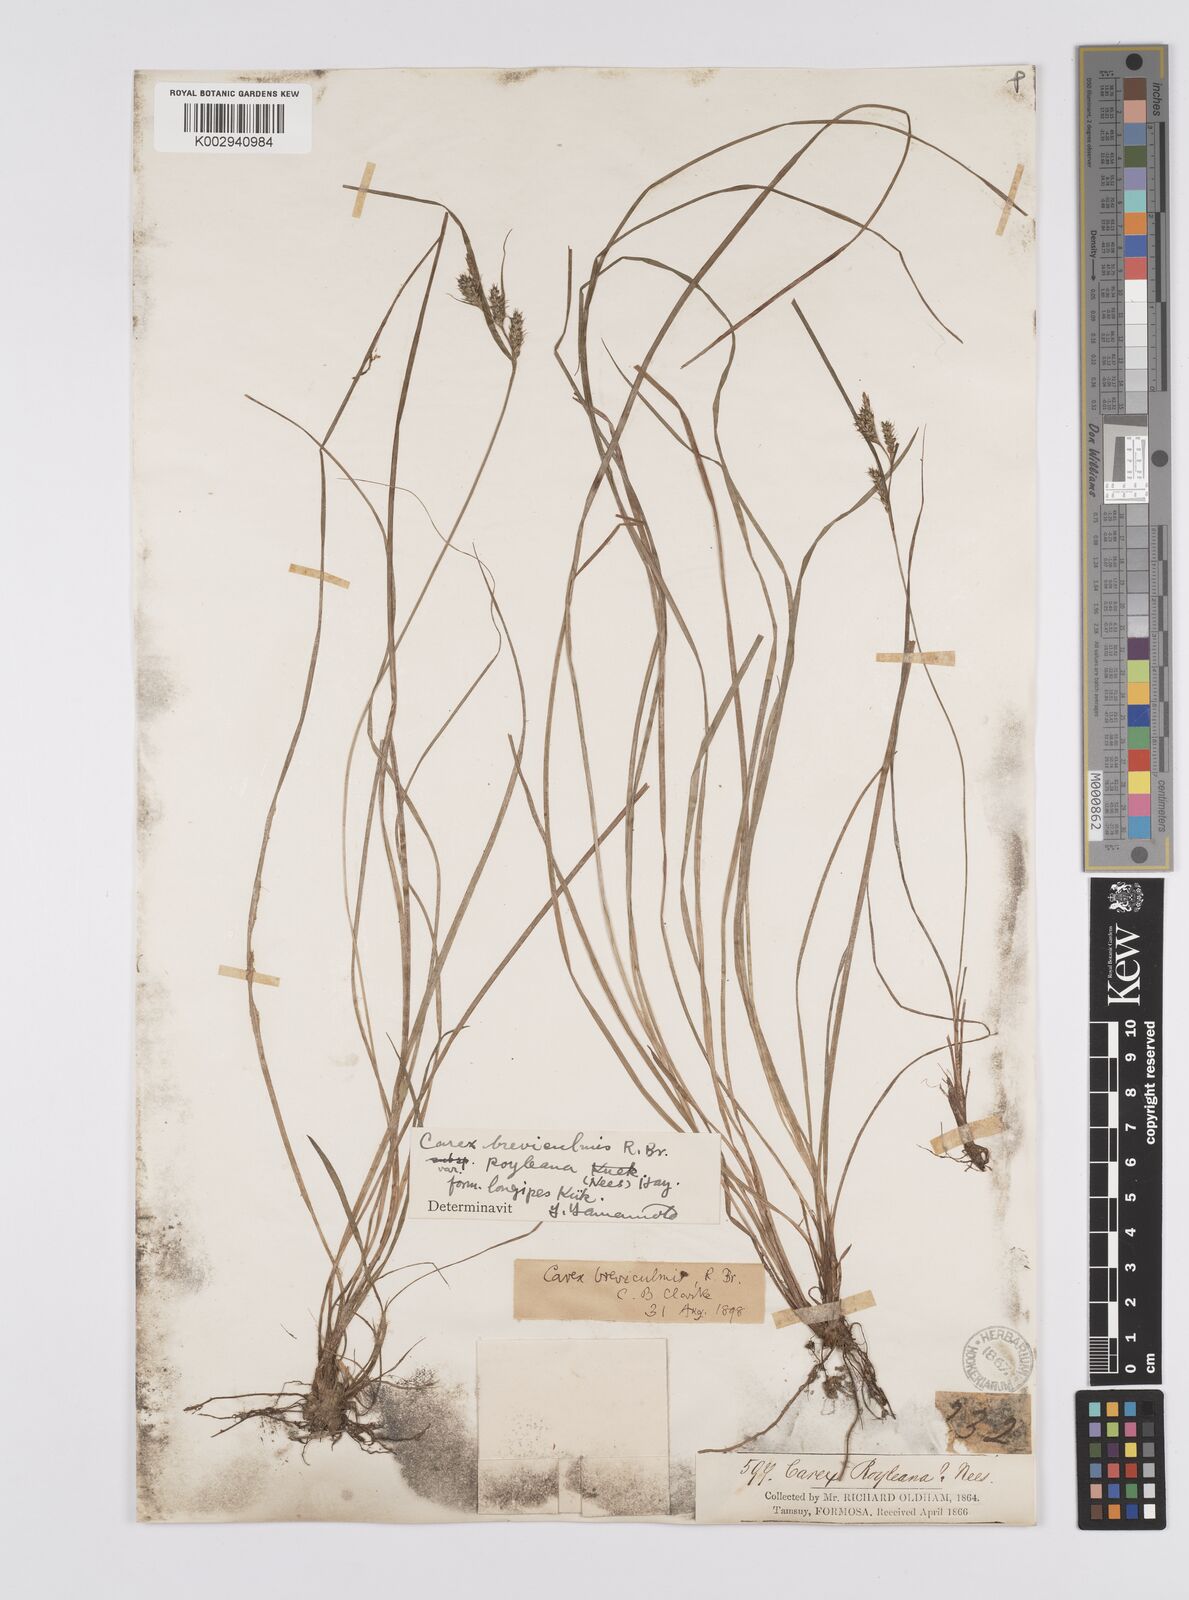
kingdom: Plantae
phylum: Tracheophyta
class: Liliopsida
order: Poales
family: Cyperaceae
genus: Carex
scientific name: Carex breviculmis
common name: Asian shortstem sedge
